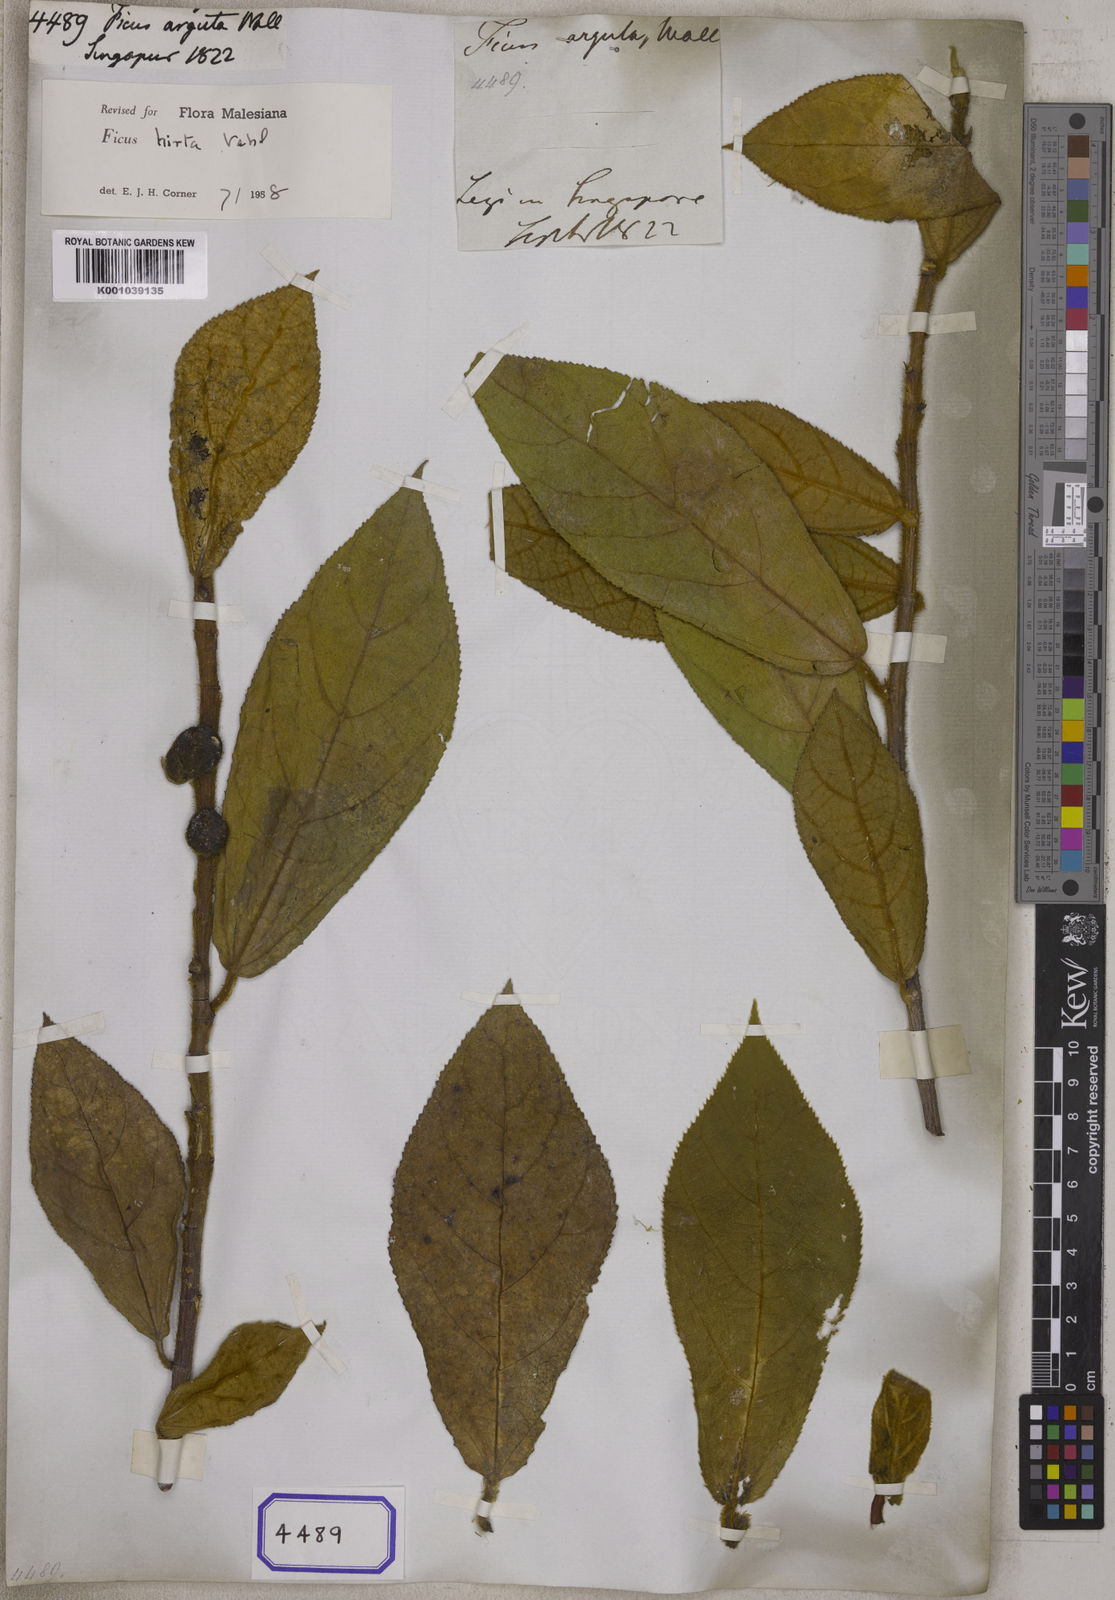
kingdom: Plantae
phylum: Tracheophyta
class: Magnoliopsida
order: Rosales
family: Moraceae
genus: Ficus
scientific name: Ficus
